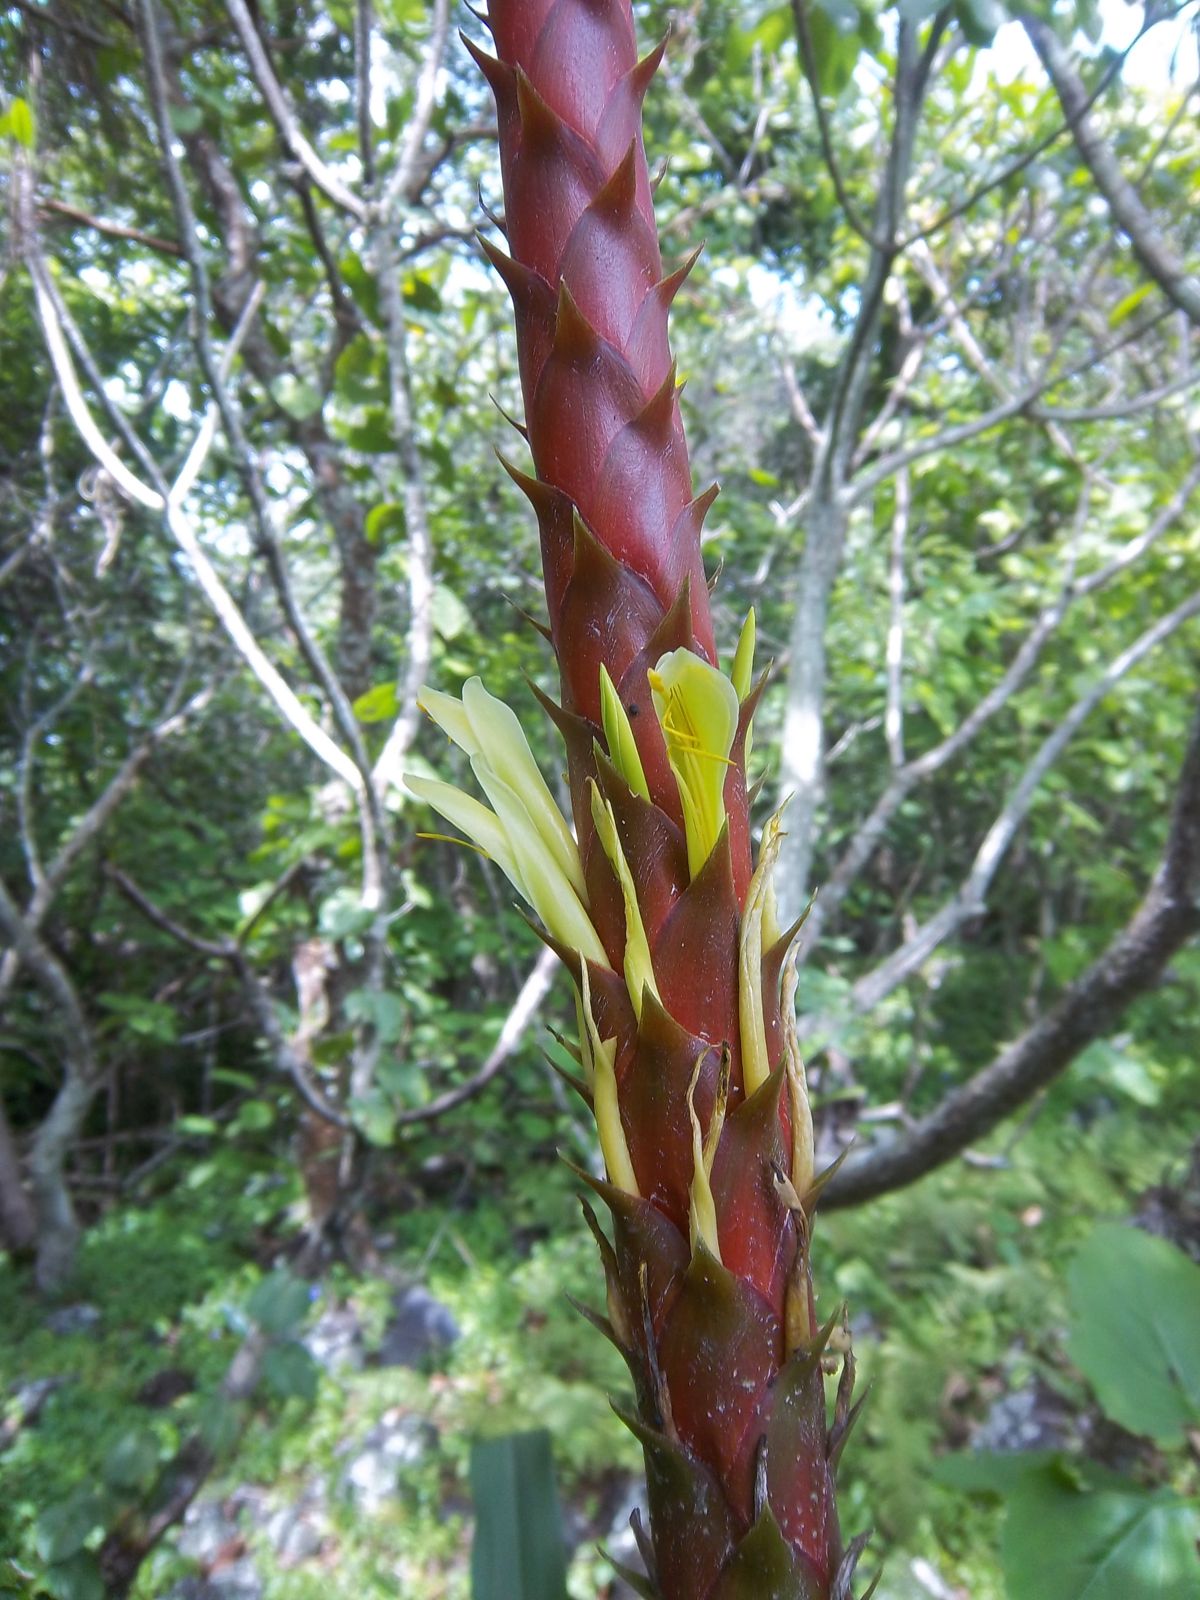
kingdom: Plantae
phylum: Tracheophyta
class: Liliopsida
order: Poales
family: Bromeliaceae
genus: Pitcairnia
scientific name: Pitcairnia imbricata
